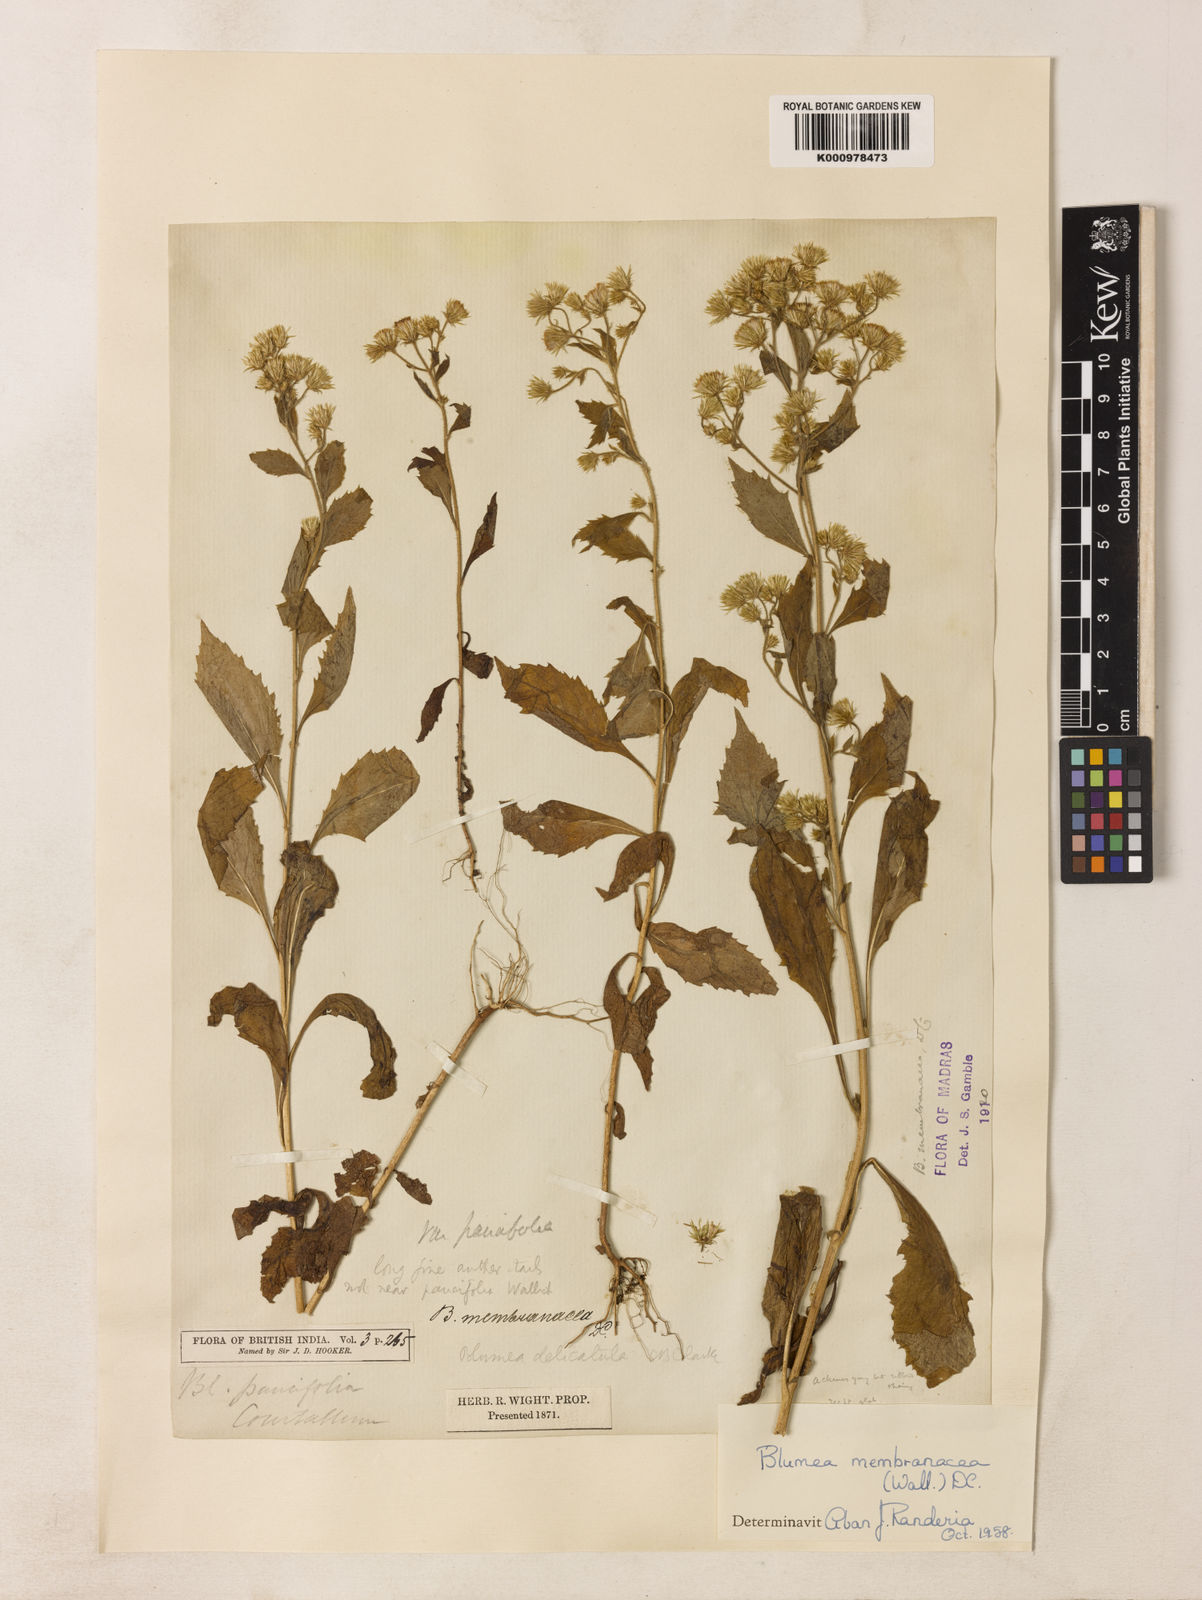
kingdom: Plantae
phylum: Tracheophyta
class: Magnoliopsida
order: Asterales
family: Asteraceae
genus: Blumea
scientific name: Blumea
